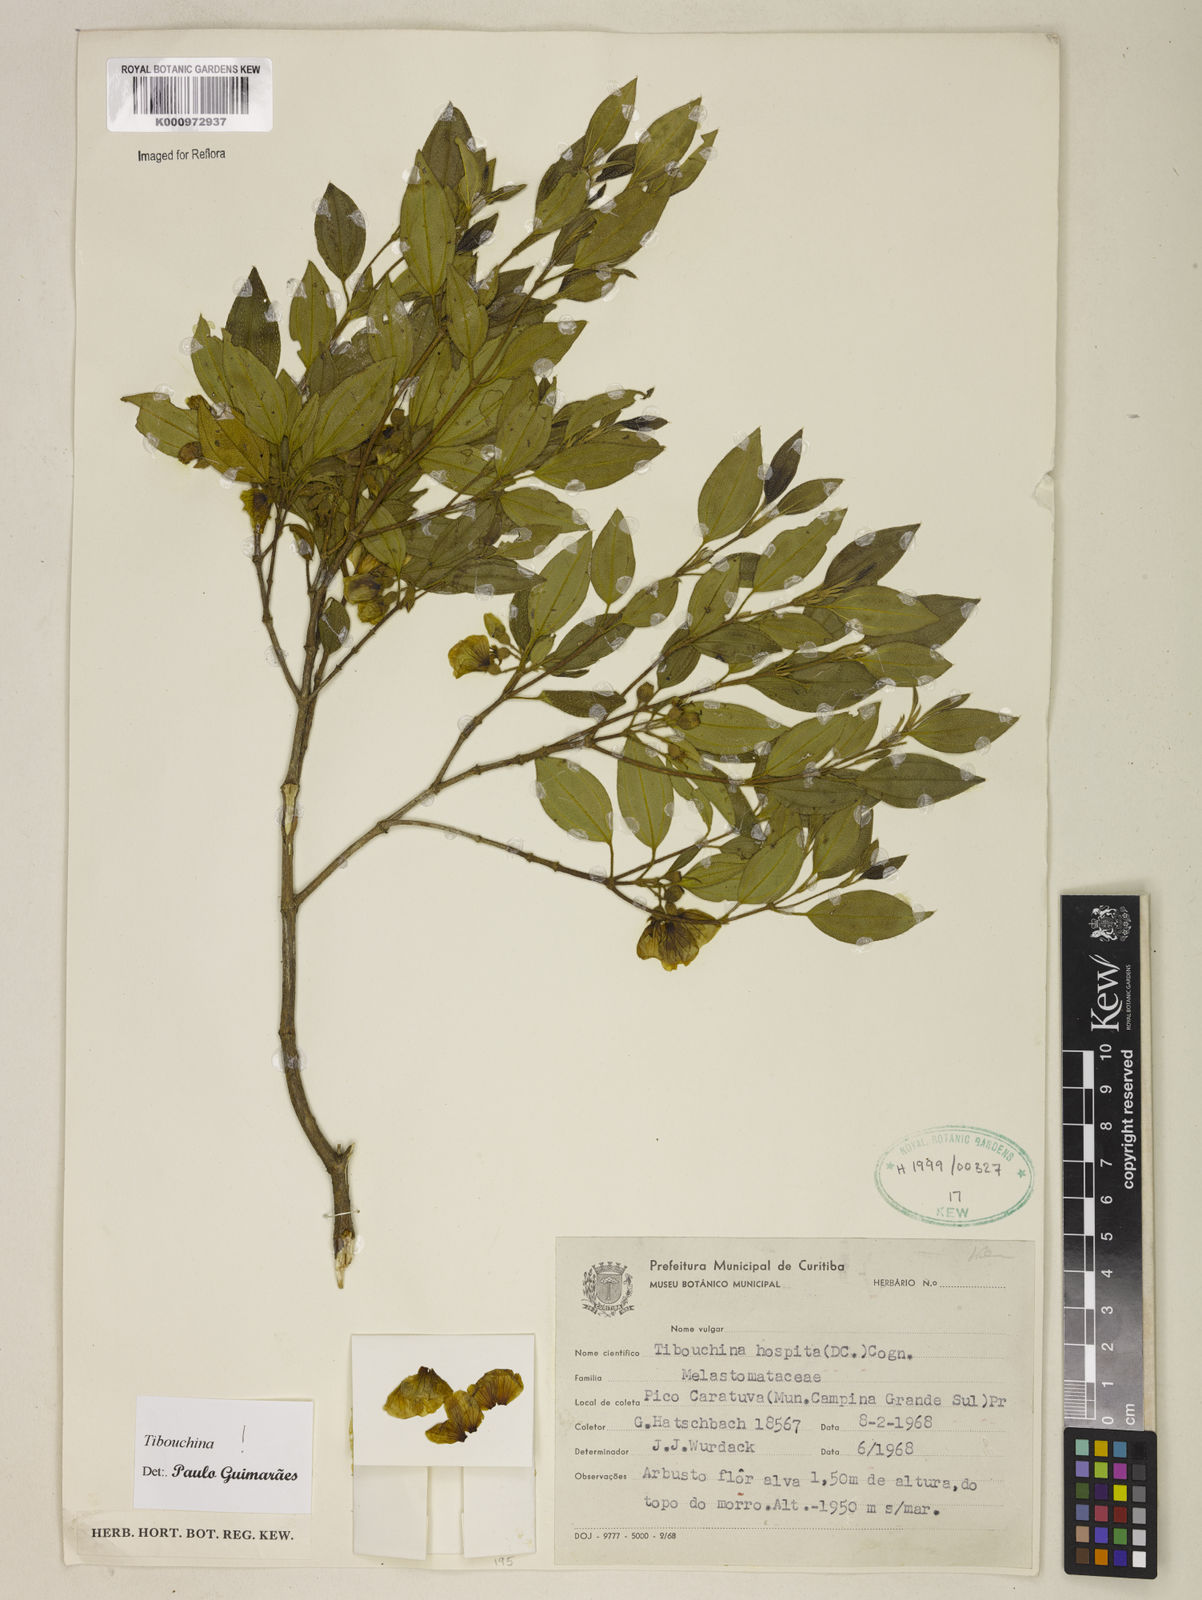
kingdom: Plantae
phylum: Tracheophyta
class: Magnoliopsida
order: Myrtales
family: Melastomataceae
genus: Pleroma
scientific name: Pleroma hospitum
